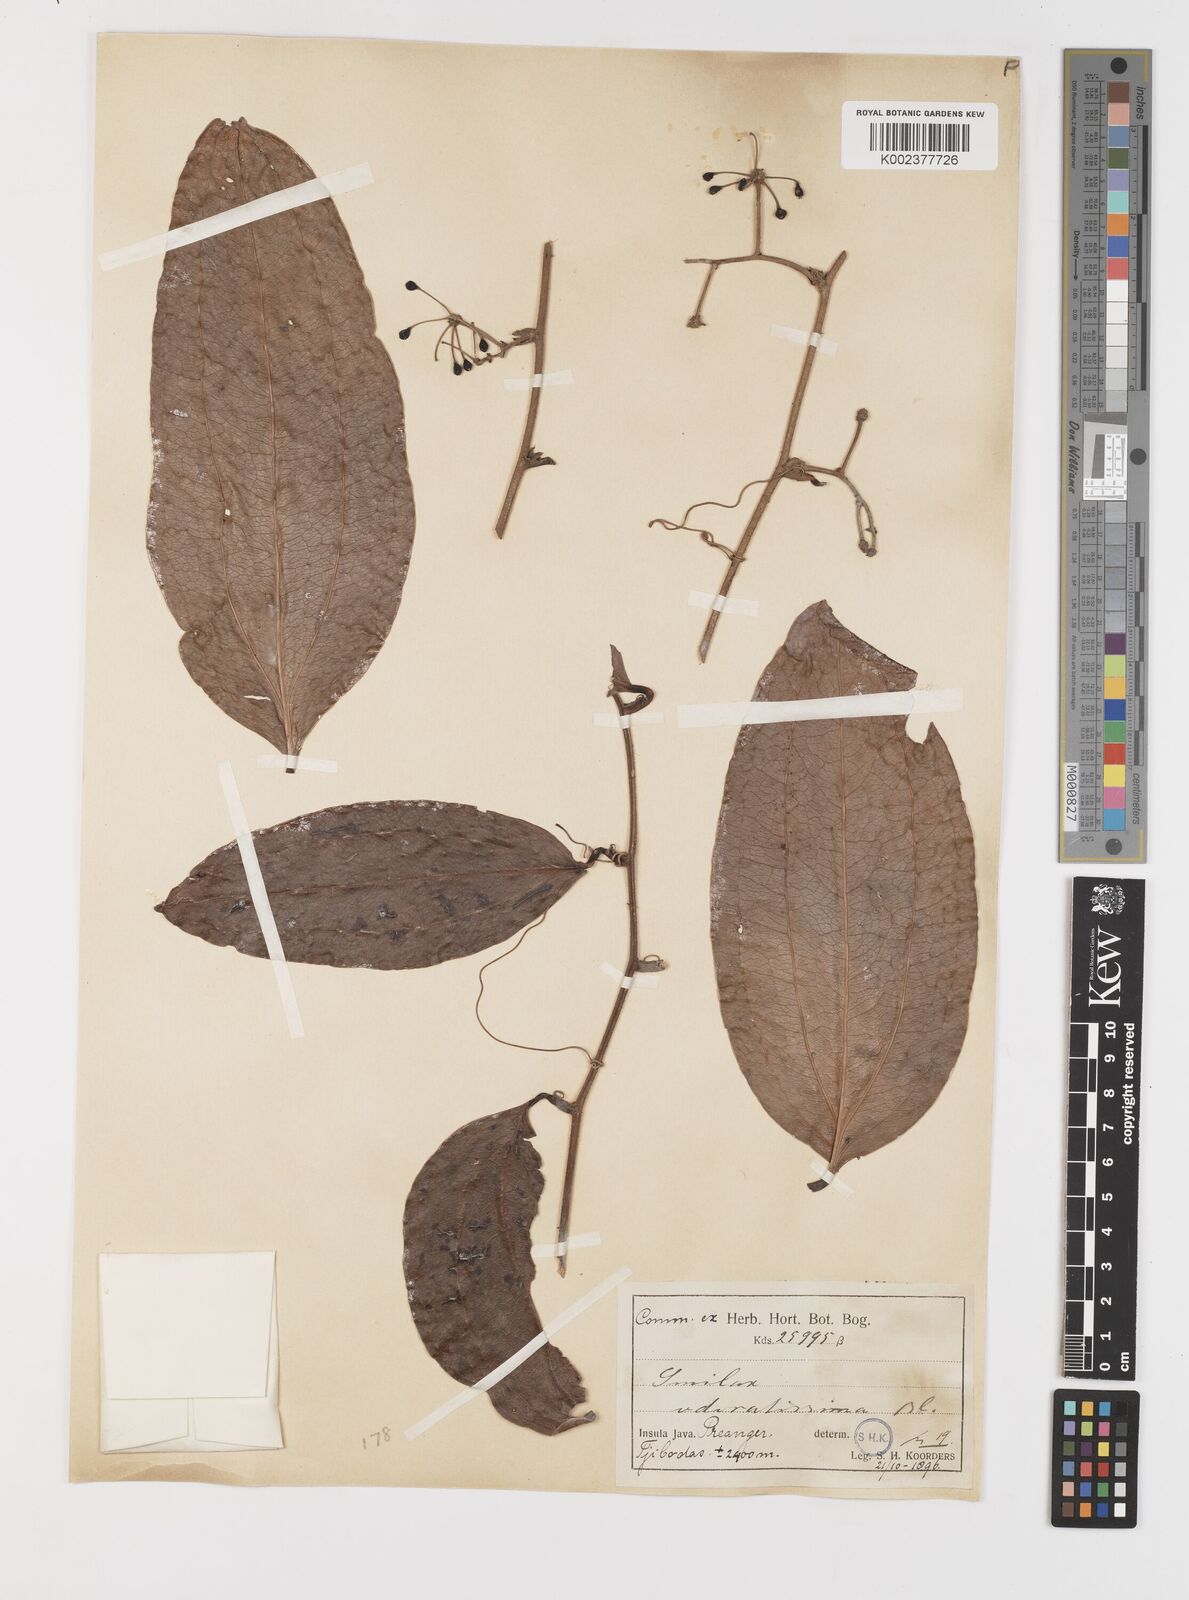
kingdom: Plantae
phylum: Tracheophyta
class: Liliopsida
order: Liliales
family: Smilacaceae
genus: Smilax
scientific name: Smilax odoratissima
